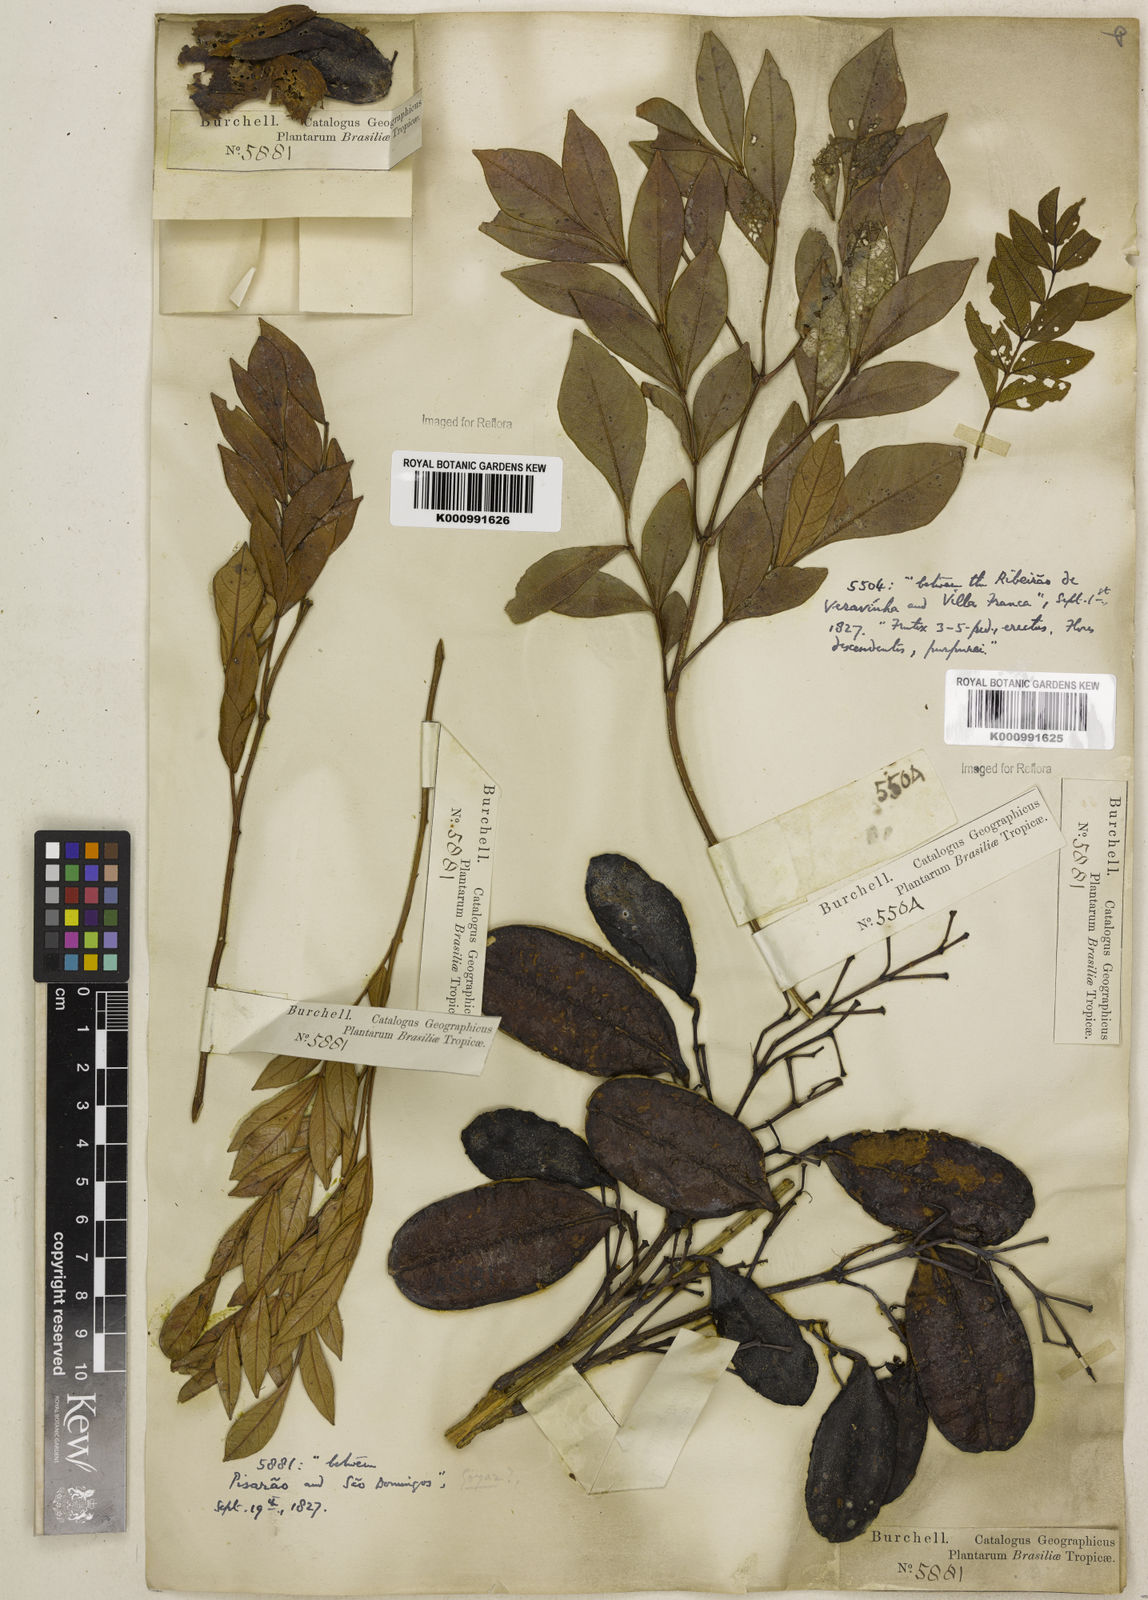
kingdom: Plantae
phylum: Tracheophyta
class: Magnoliopsida
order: Lamiales
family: Bignoniaceae
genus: Jacaranda
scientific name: Jacaranda caroba
